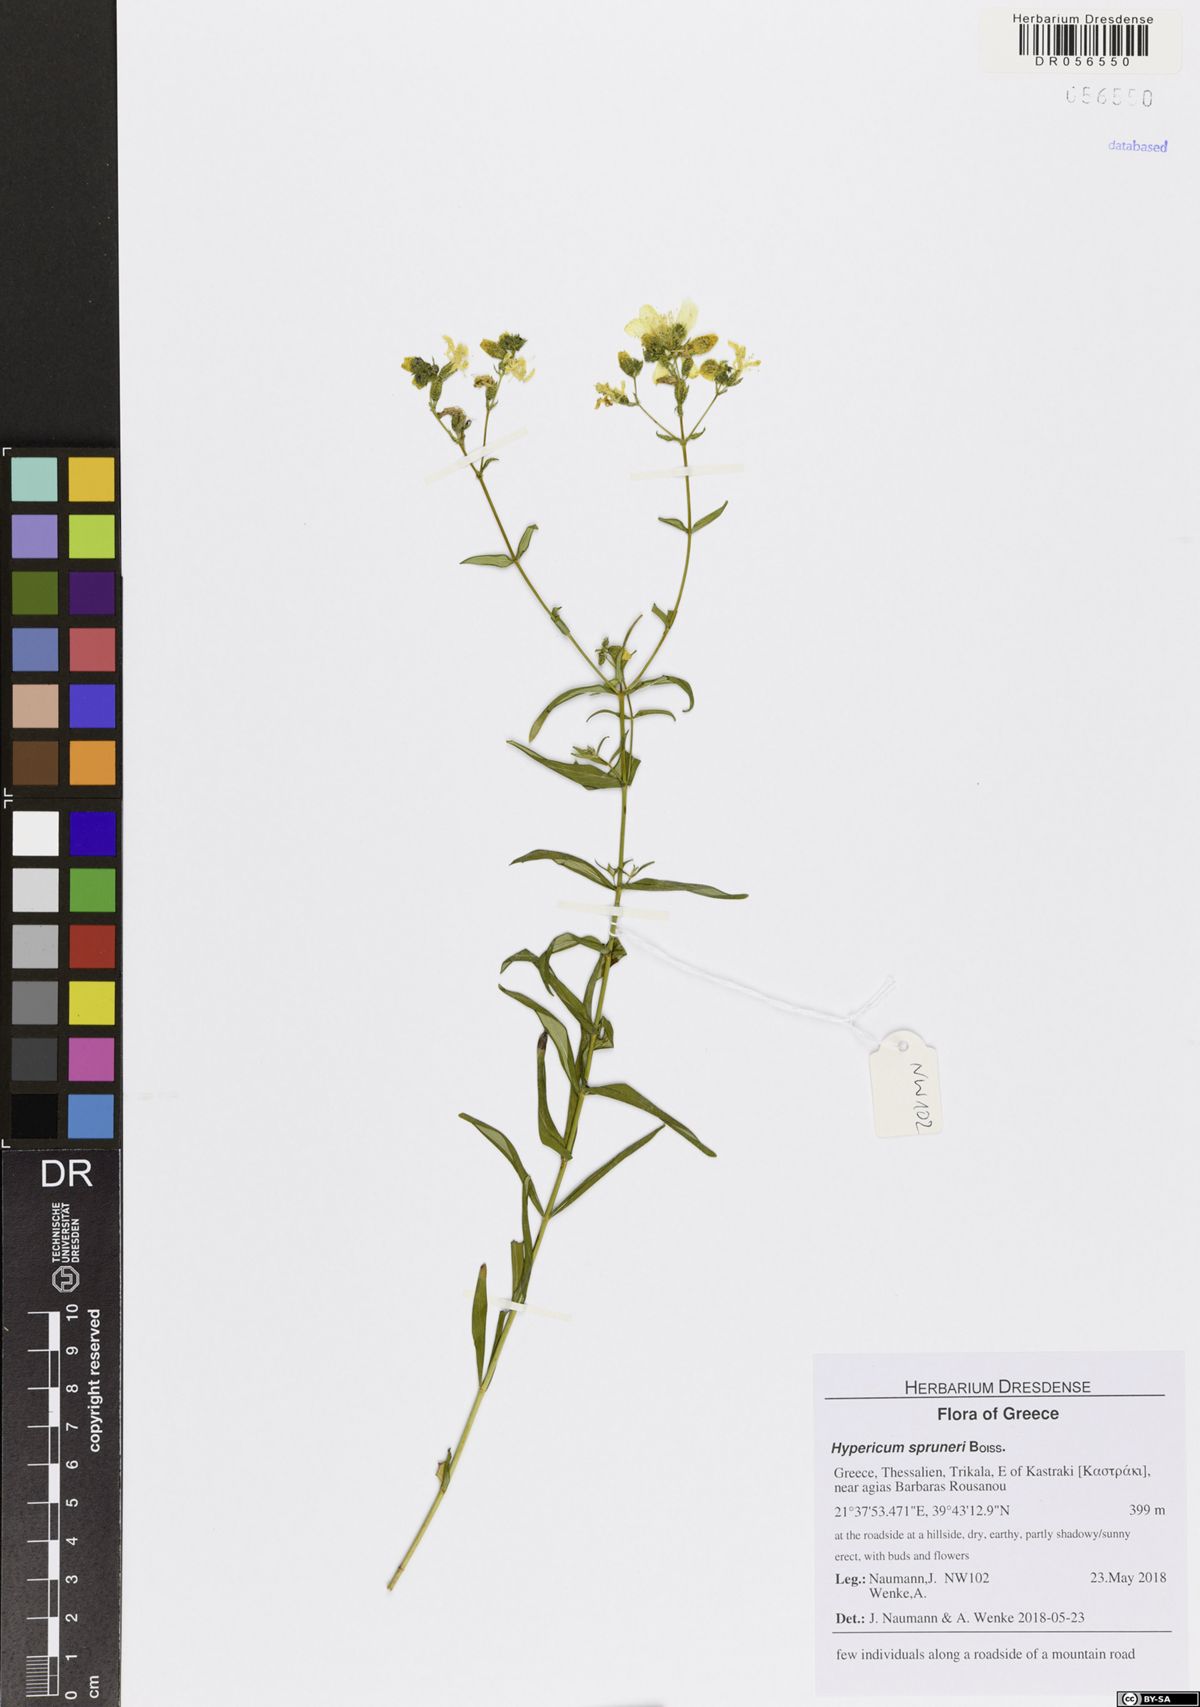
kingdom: Plantae
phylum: Tracheophyta
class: Magnoliopsida
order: Malpighiales
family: Hypericaceae
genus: Hypericum
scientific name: Hypericum spruneri
